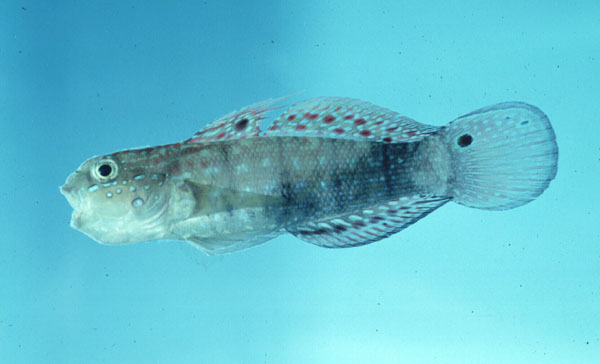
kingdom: Animalia
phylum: Chordata
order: Perciformes
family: Gobiidae
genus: Amblygobius
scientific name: Amblygobius semicinctus
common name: Halfbarred goby
